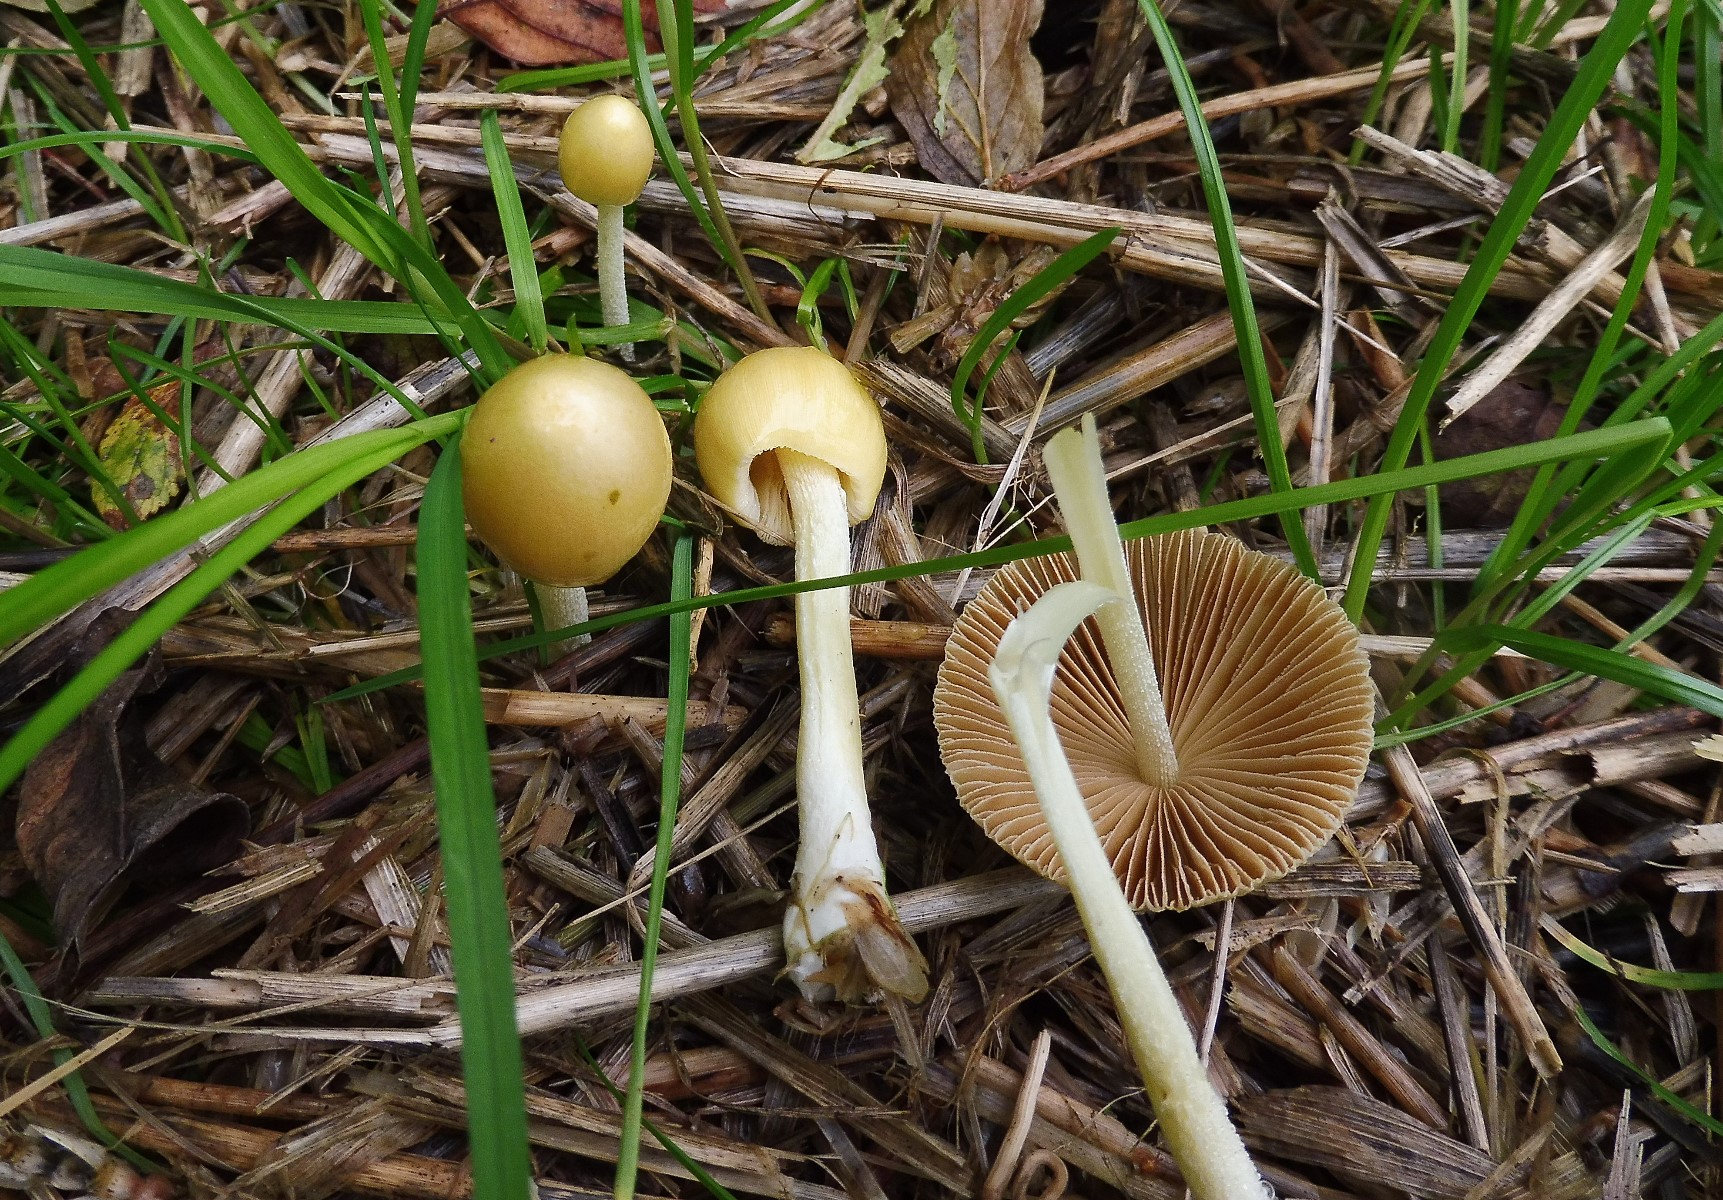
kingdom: Fungi
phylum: Basidiomycota
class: Agaricomycetes
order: Agaricales
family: Bolbitiaceae
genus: Bolbitius
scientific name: Bolbitius titubans
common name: almindelig gulhat
